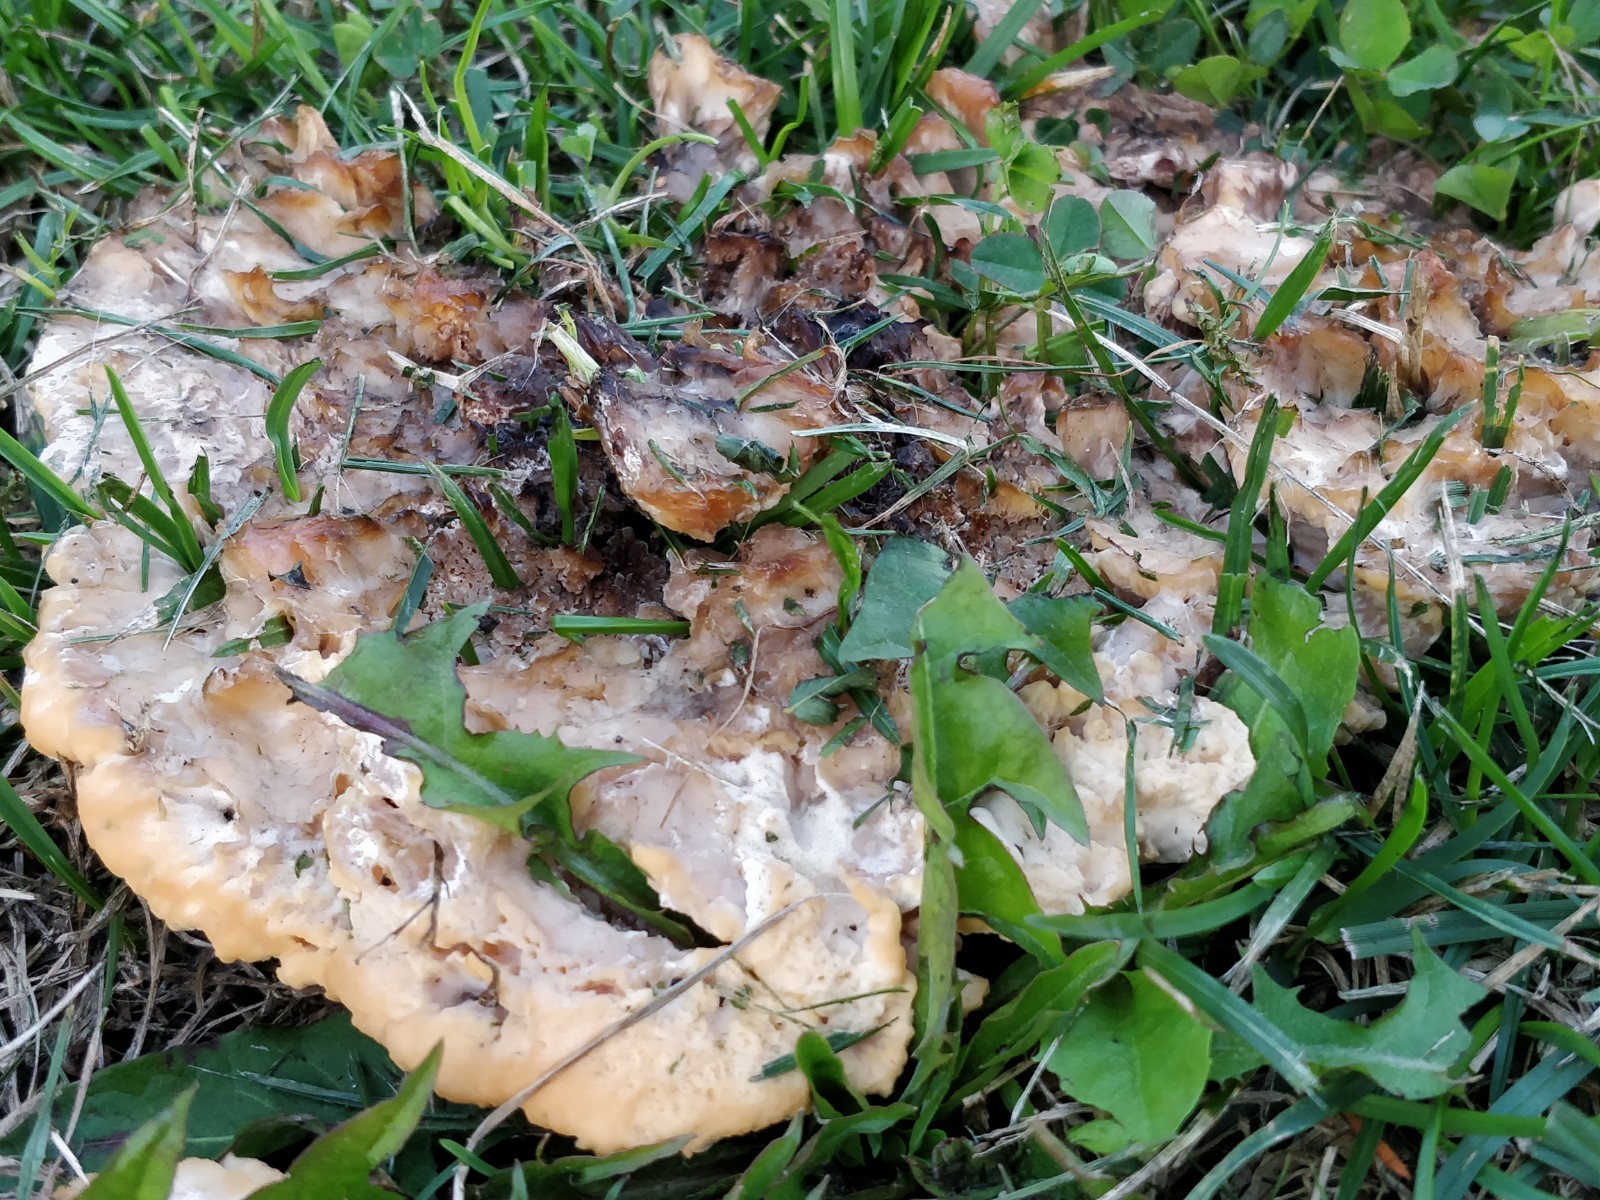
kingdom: Fungi
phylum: Basidiomycota
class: Agaricomycetes
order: Polyporales
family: Podoscyphaceae
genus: Abortiporus
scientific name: Abortiporus biennis
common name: rødmende pjalteporesvamp
